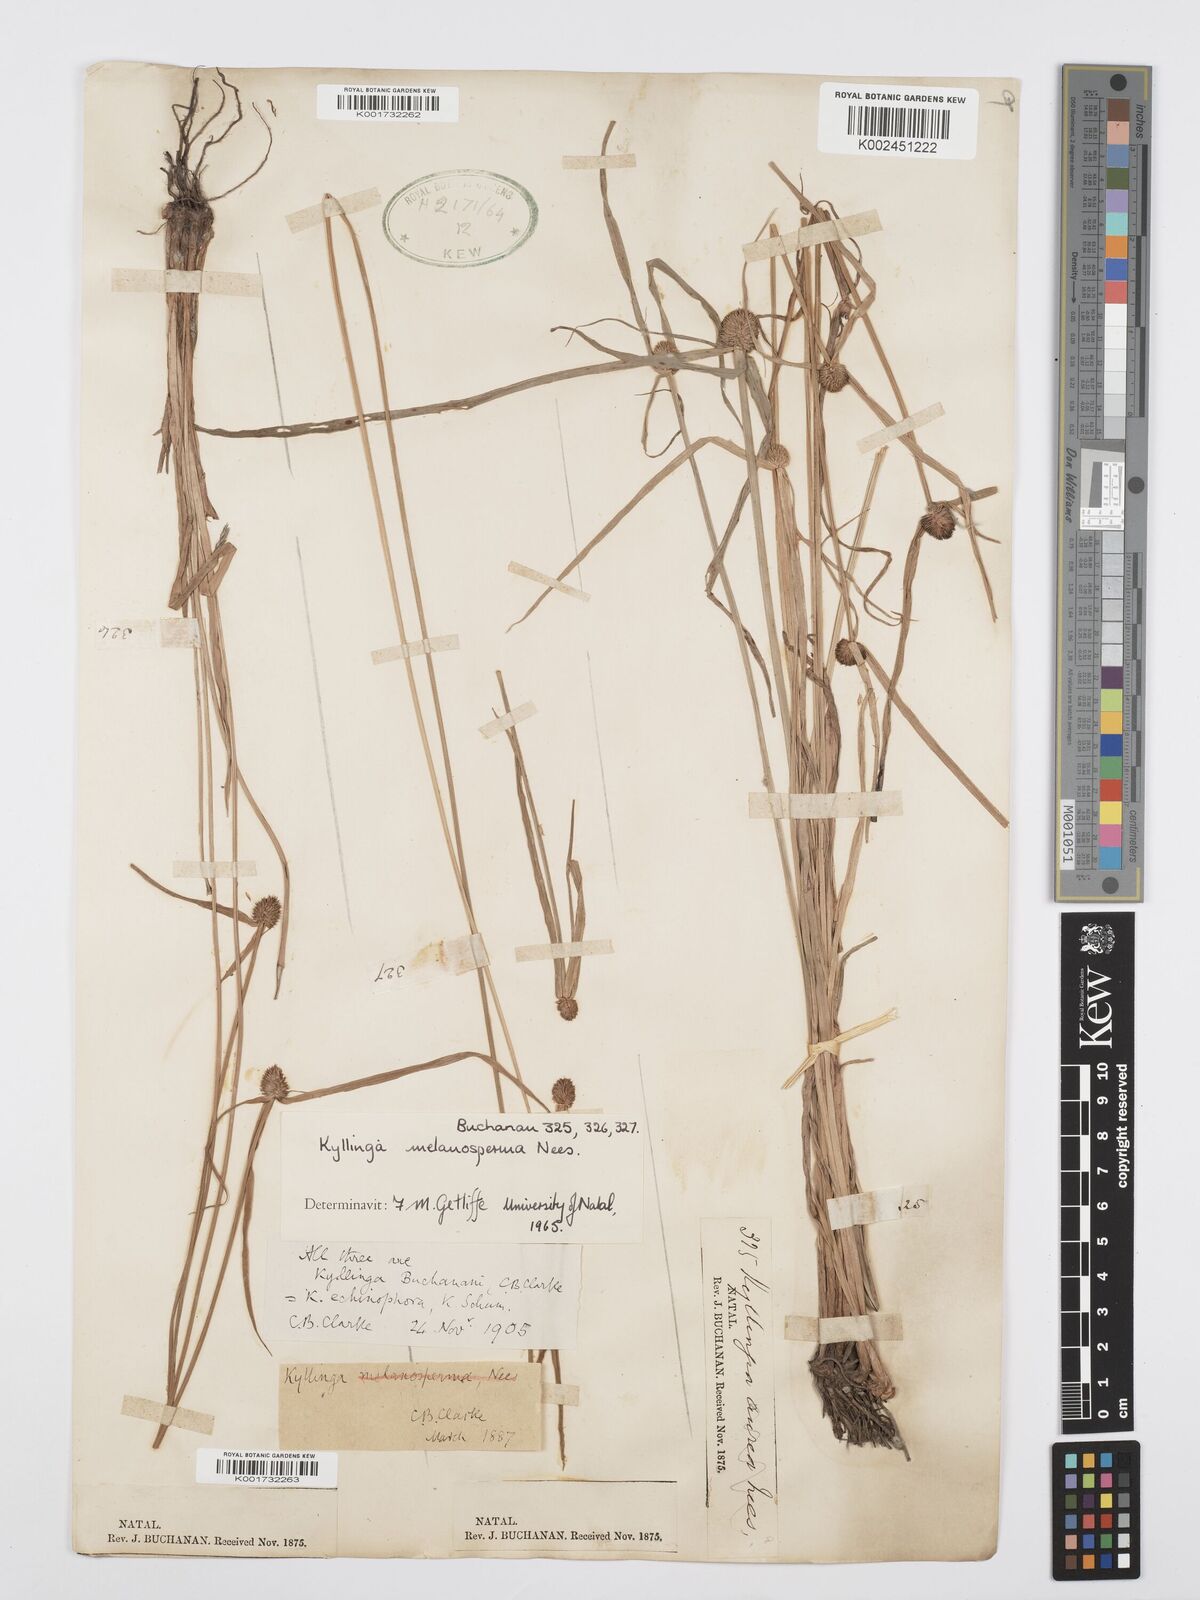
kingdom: Plantae
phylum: Tracheophyta
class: Liliopsida
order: Poales
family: Cyperaceae
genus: Cyperus
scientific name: Cyperus melanospermus
